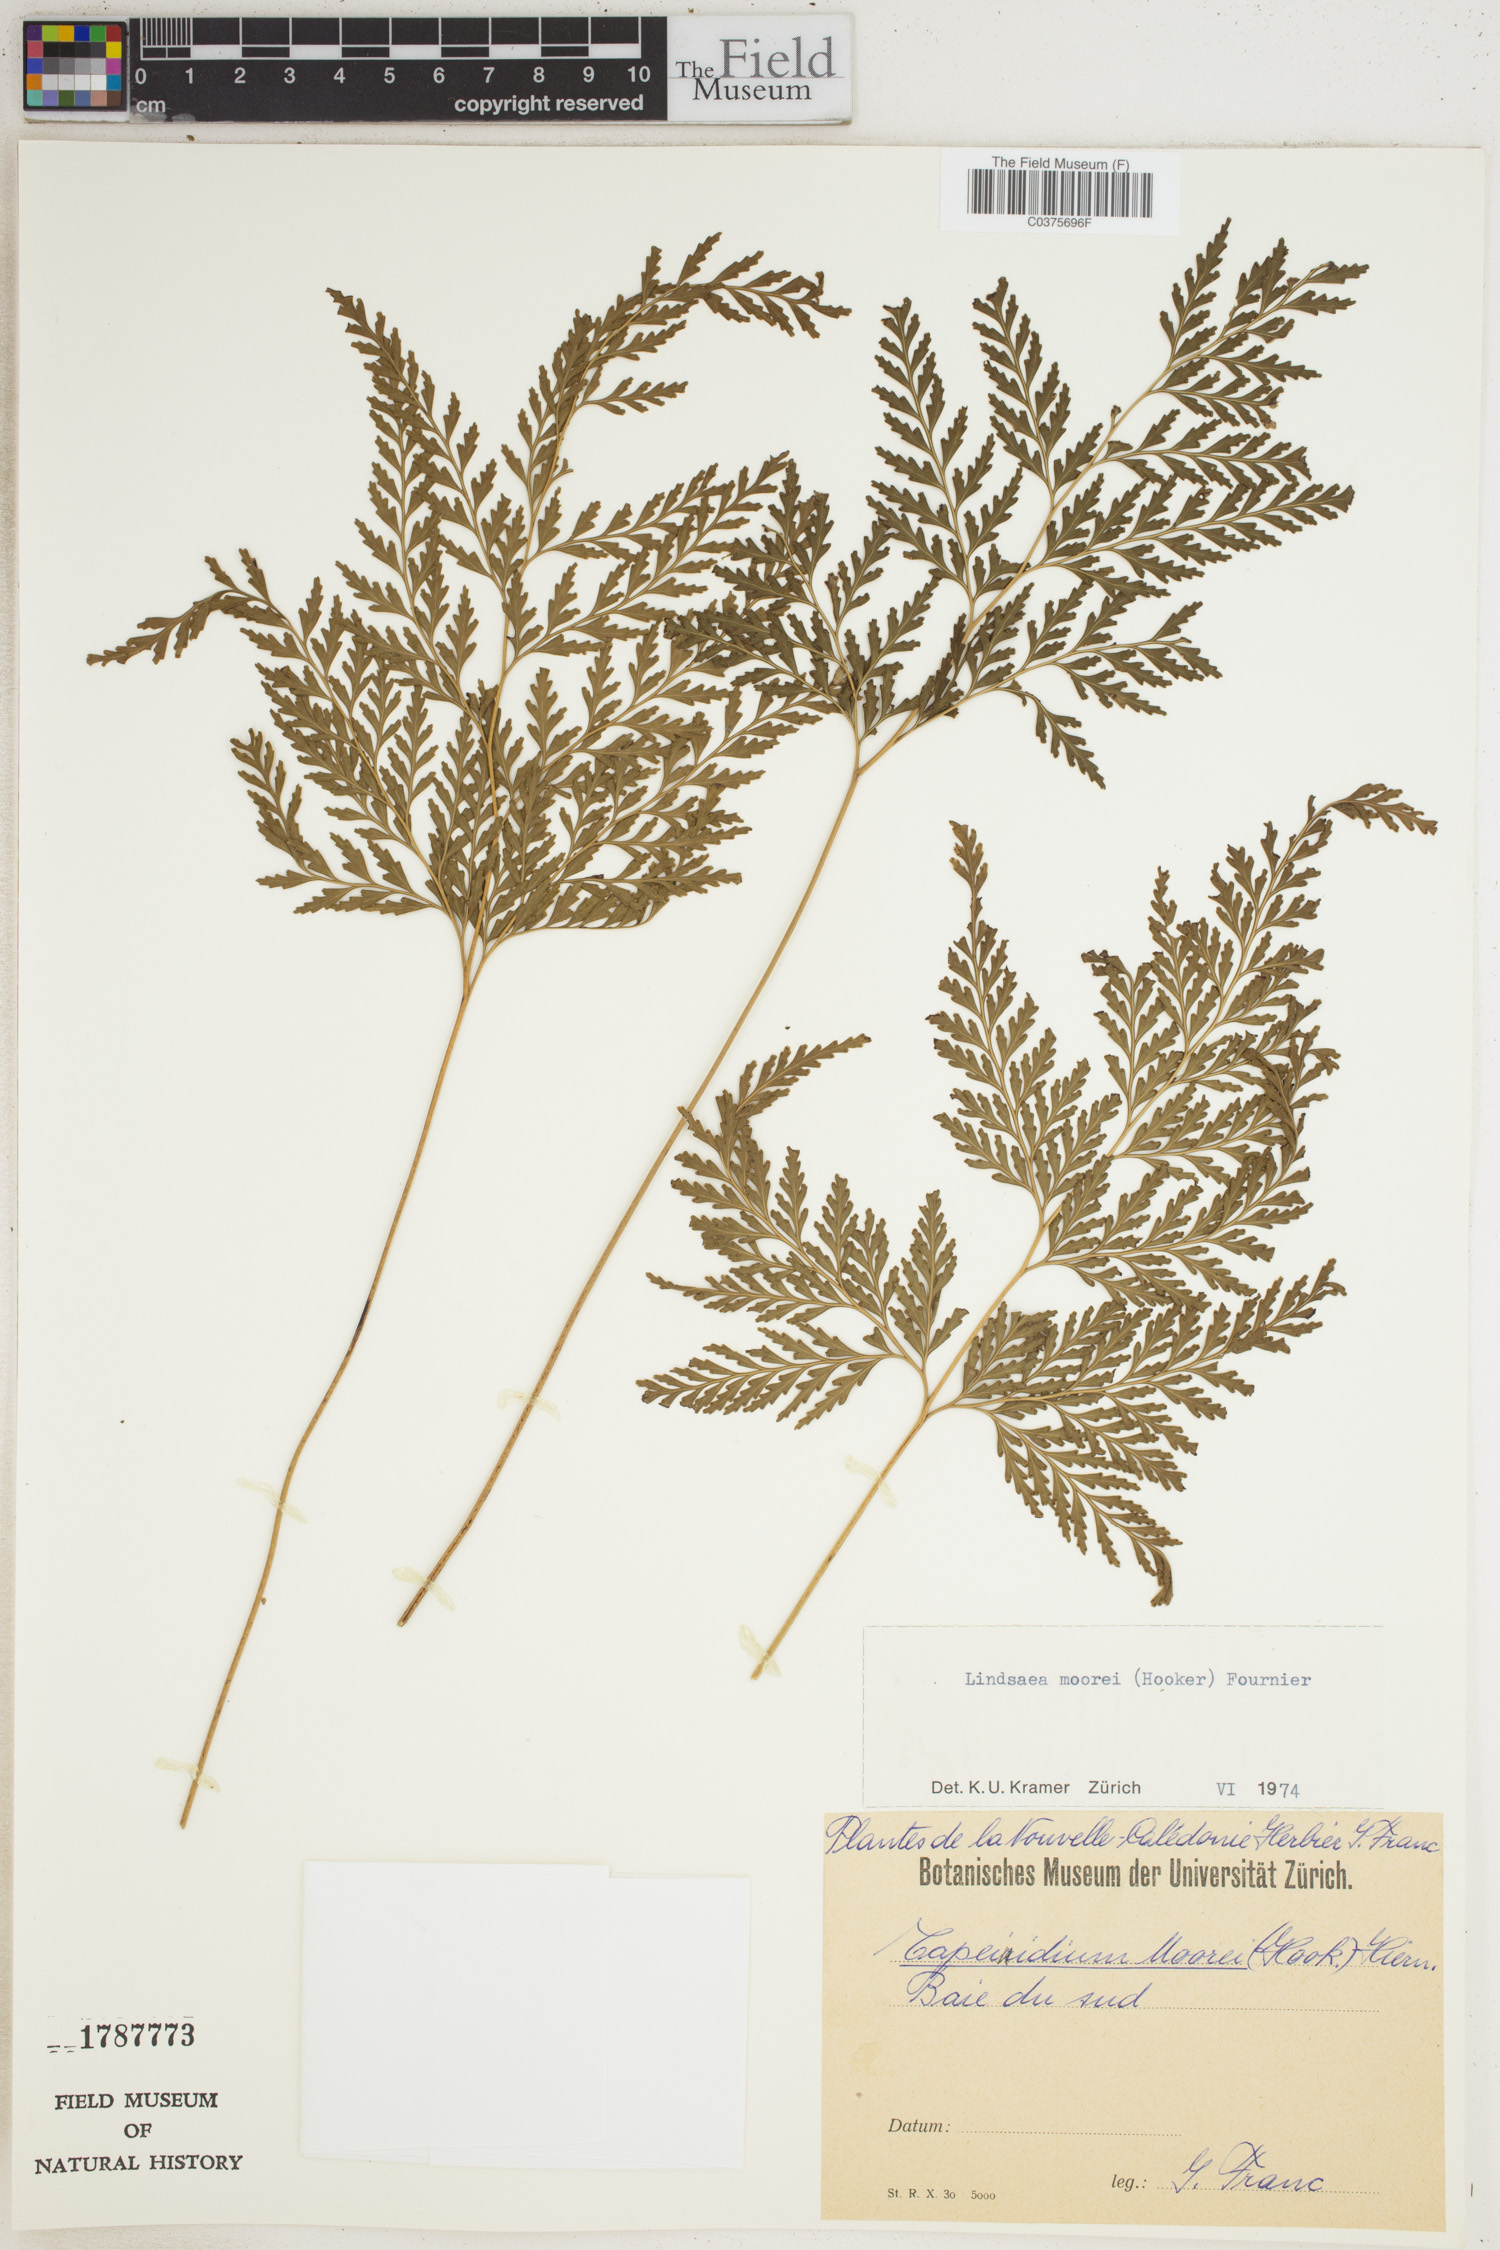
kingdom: Plantae
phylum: Tracheophyta
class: Polypodiopsida
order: Polypodiales
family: Lindsaeaceae
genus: Tapeinidium
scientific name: Tapeinidium moorei
